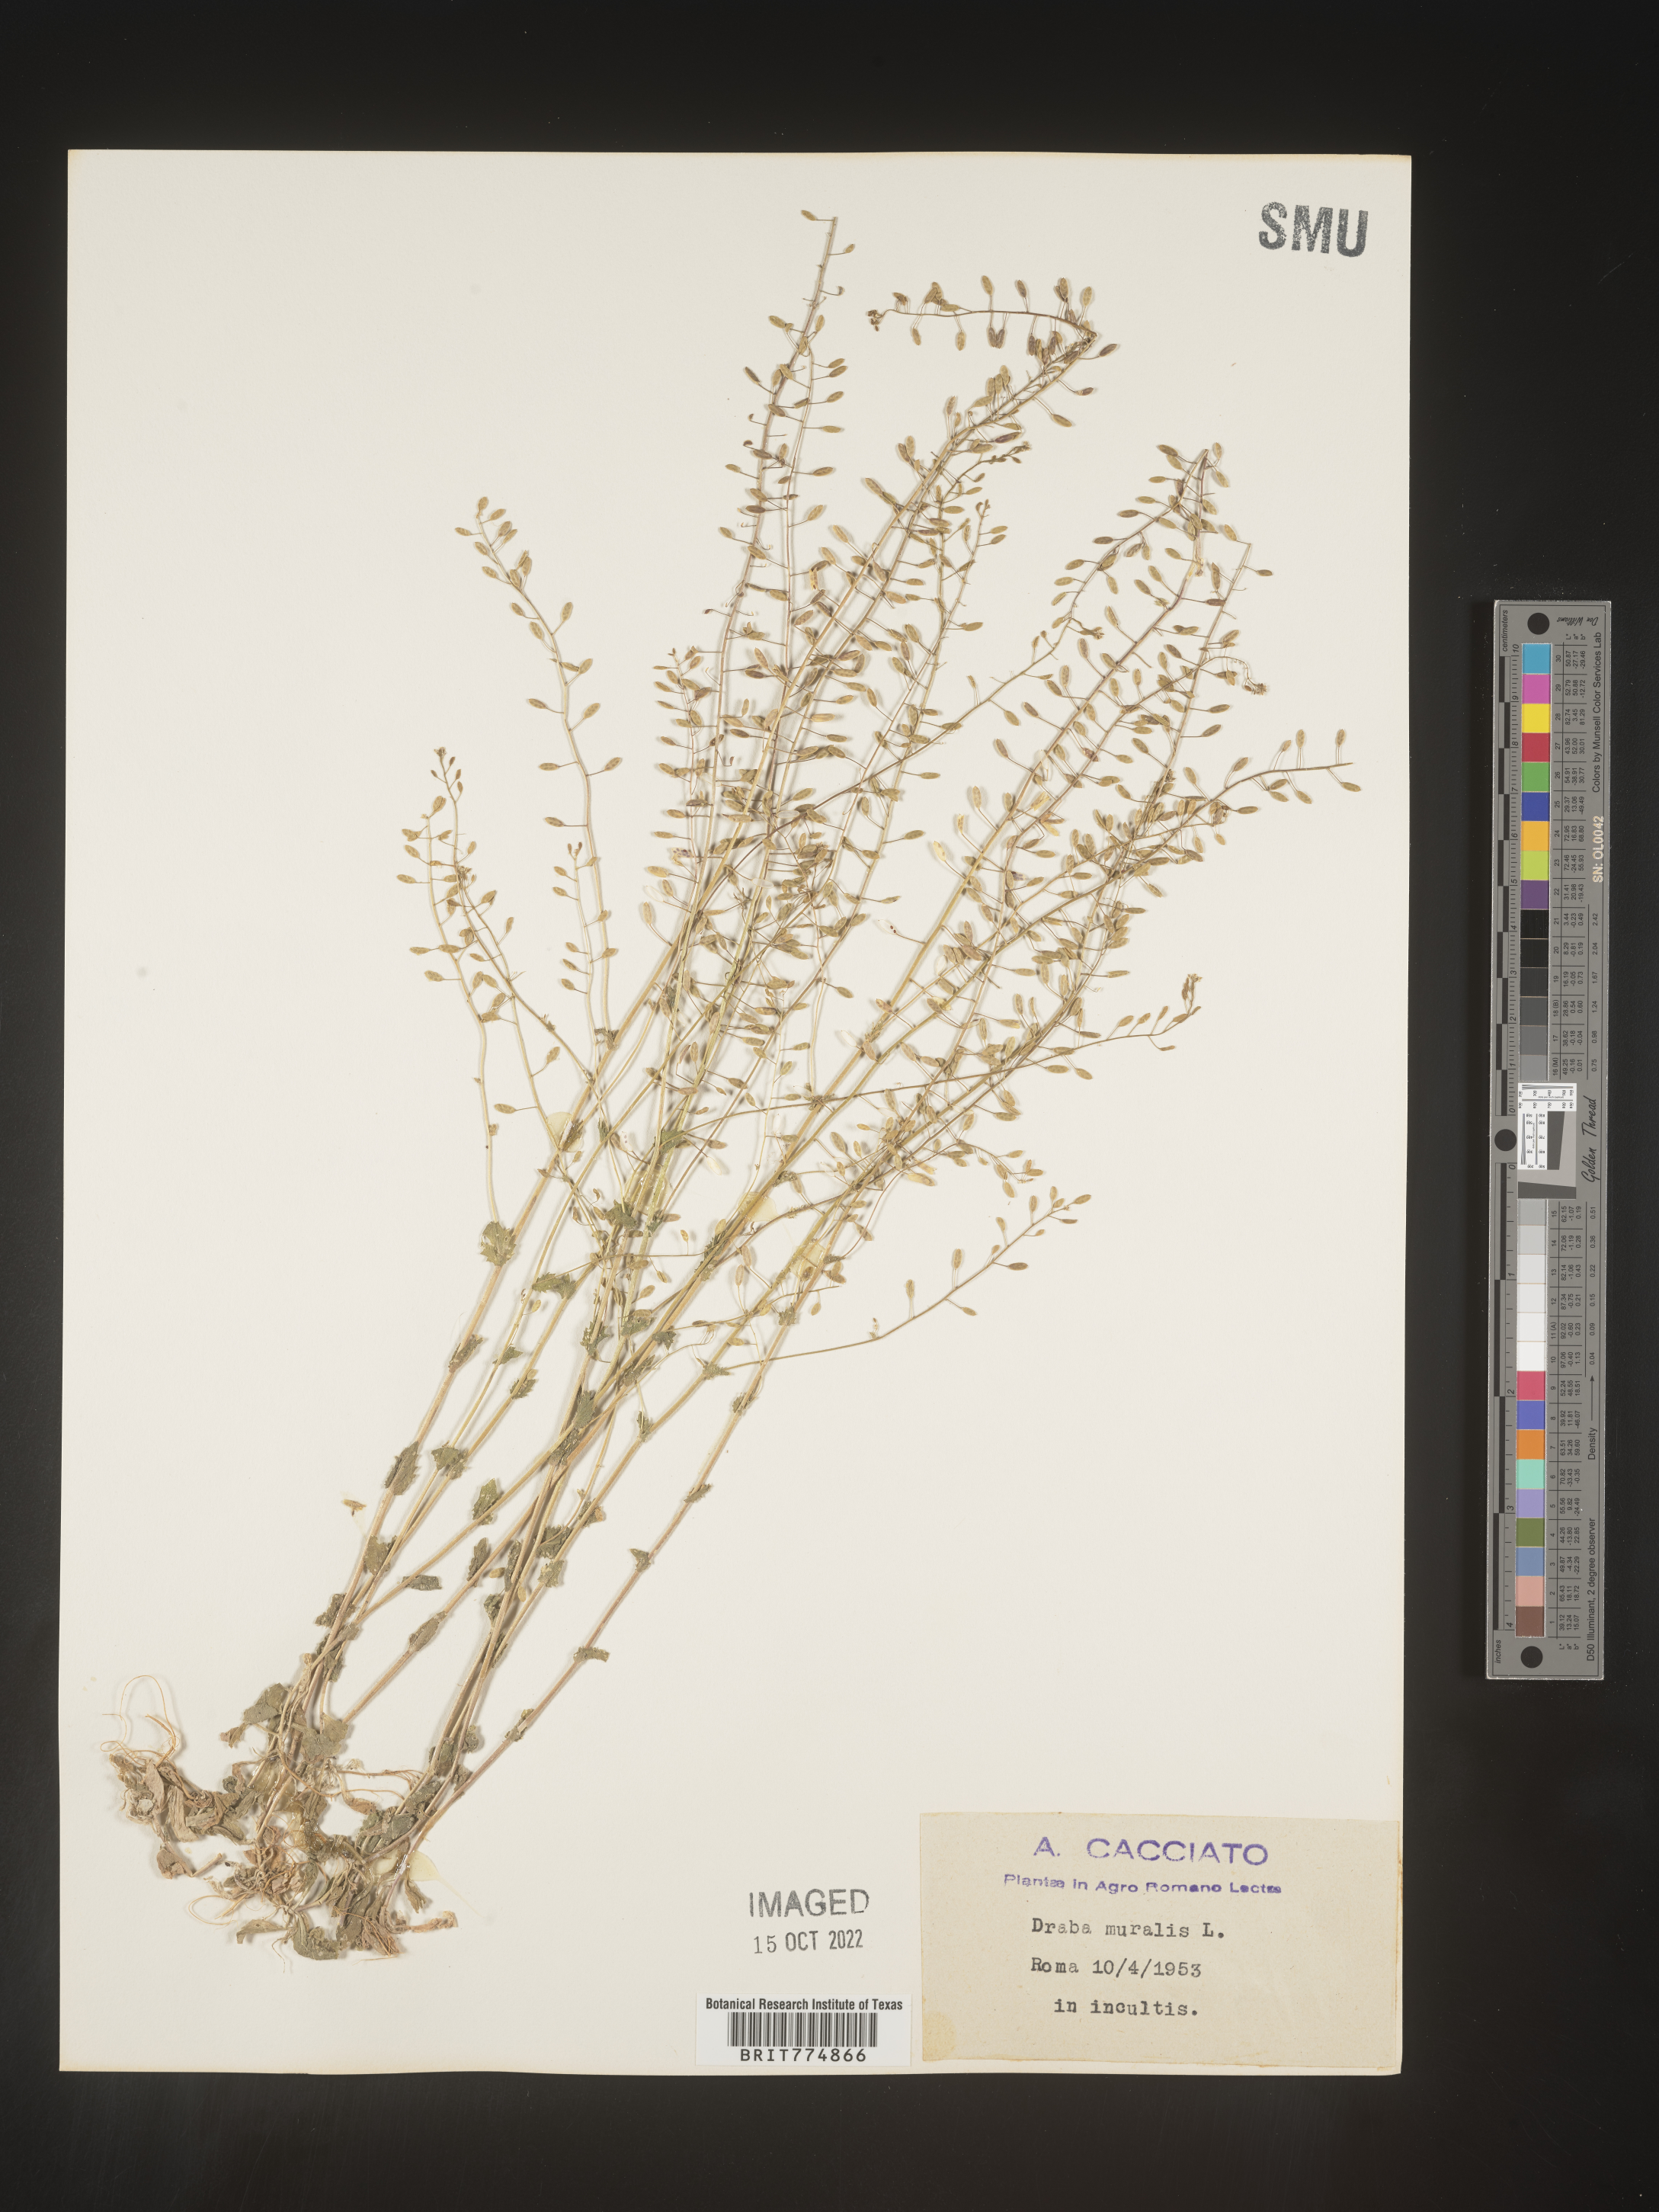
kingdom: Plantae
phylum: Tracheophyta
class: Magnoliopsida
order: Brassicales
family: Brassicaceae
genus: Draba
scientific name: Draba
